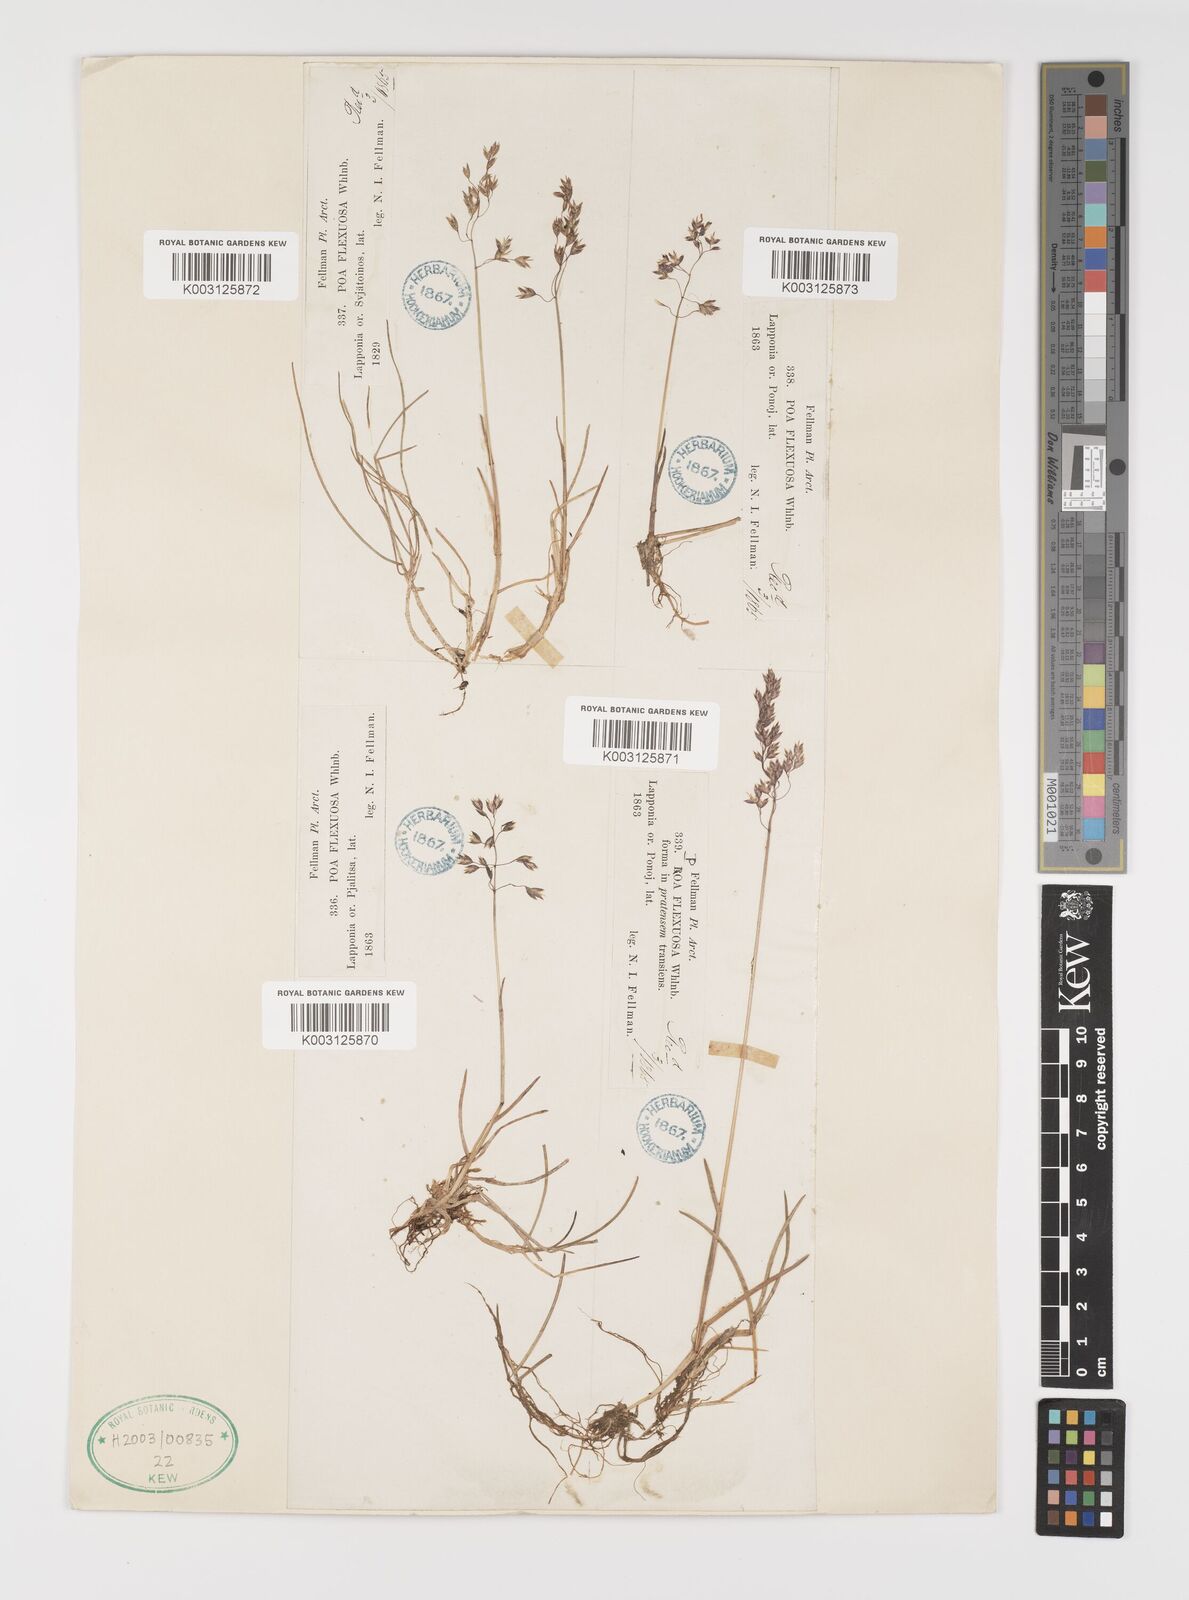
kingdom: Plantae
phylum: Tracheophyta
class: Liliopsida
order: Poales
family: Poaceae
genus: Eragrostis
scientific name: Eragrostis cilianensis
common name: Stinkgrass
